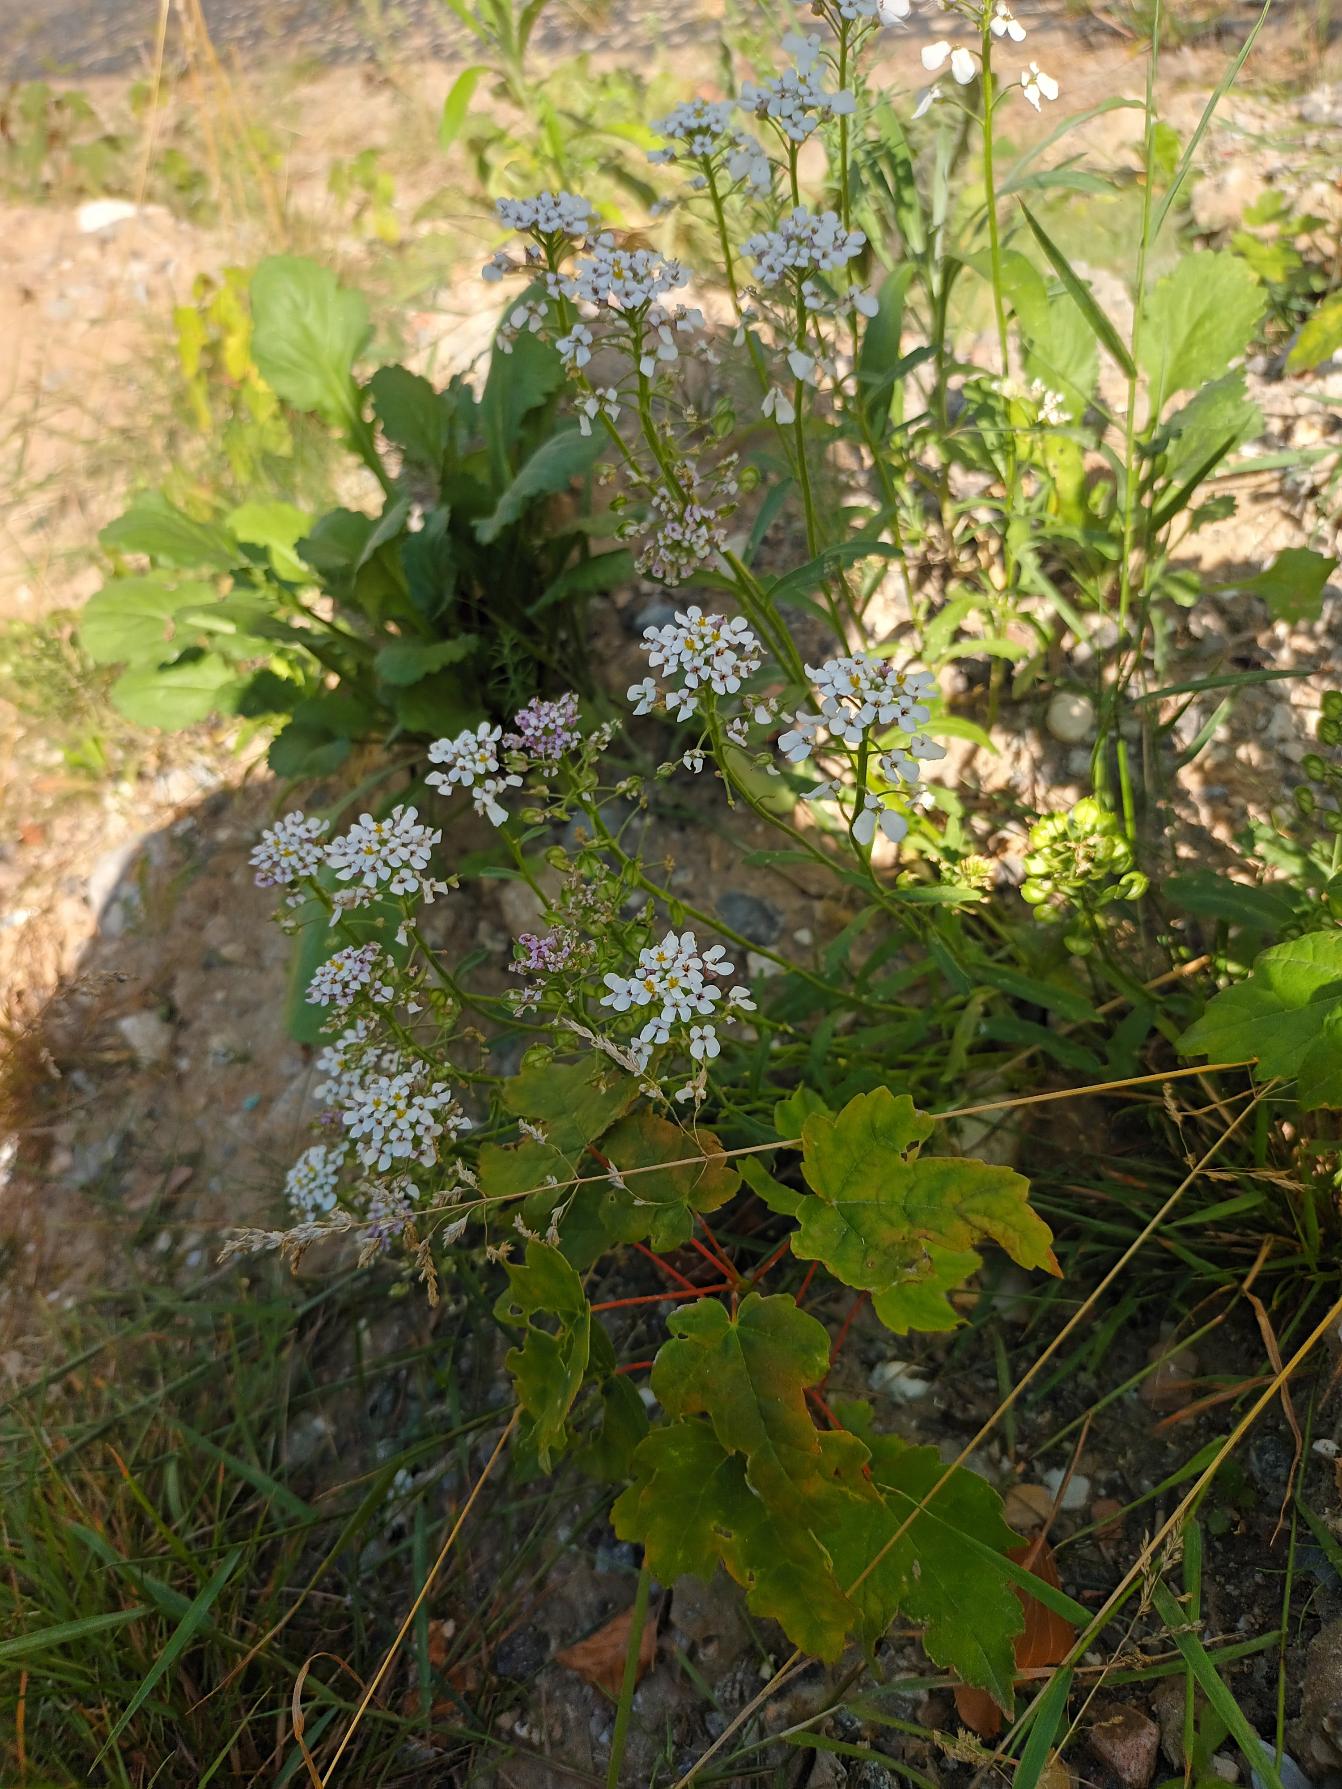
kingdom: Plantae
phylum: Tracheophyta
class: Magnoliopsida
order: Brassicales
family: Brassicaceae
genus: Iberis
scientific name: Iberis amara
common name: Hvid sløjfeblomst
